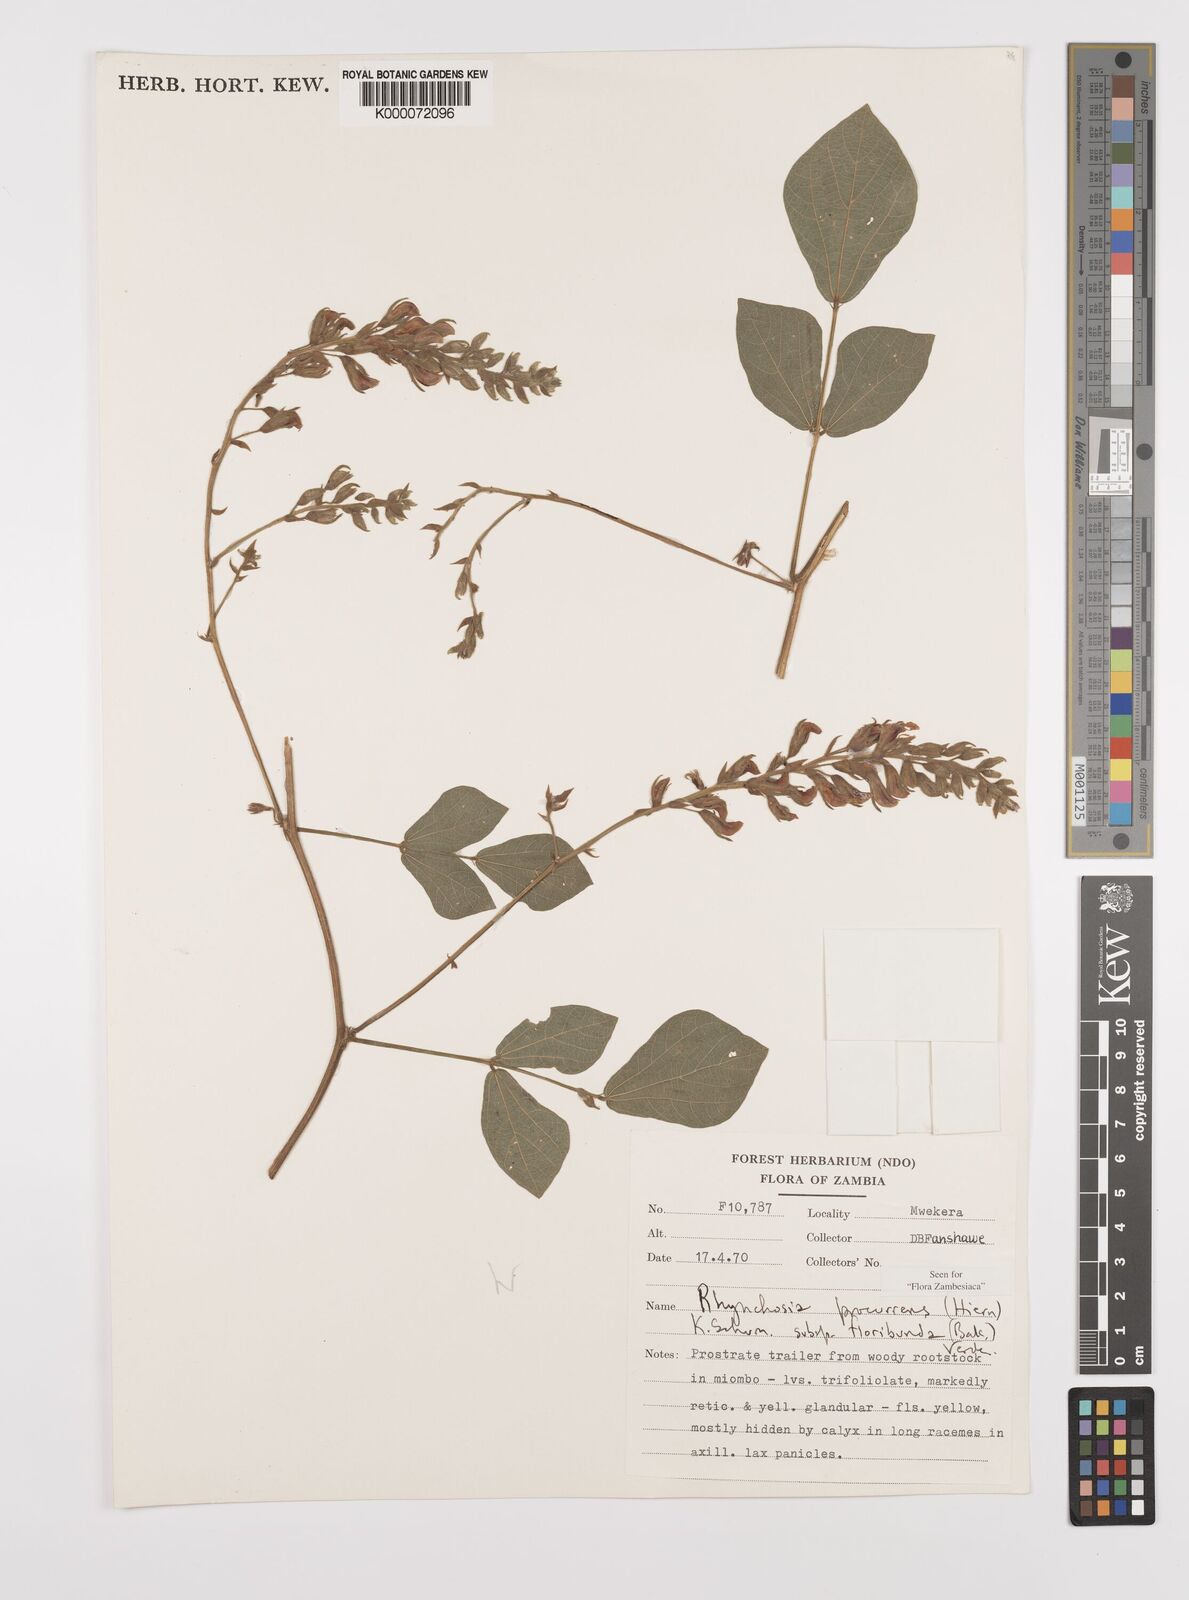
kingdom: Plantae
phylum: Tracheophyta
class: Magnoliopsida
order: Fabales
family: Fabaceae
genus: Rhynchosia
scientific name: Rhynchosia procurrens
